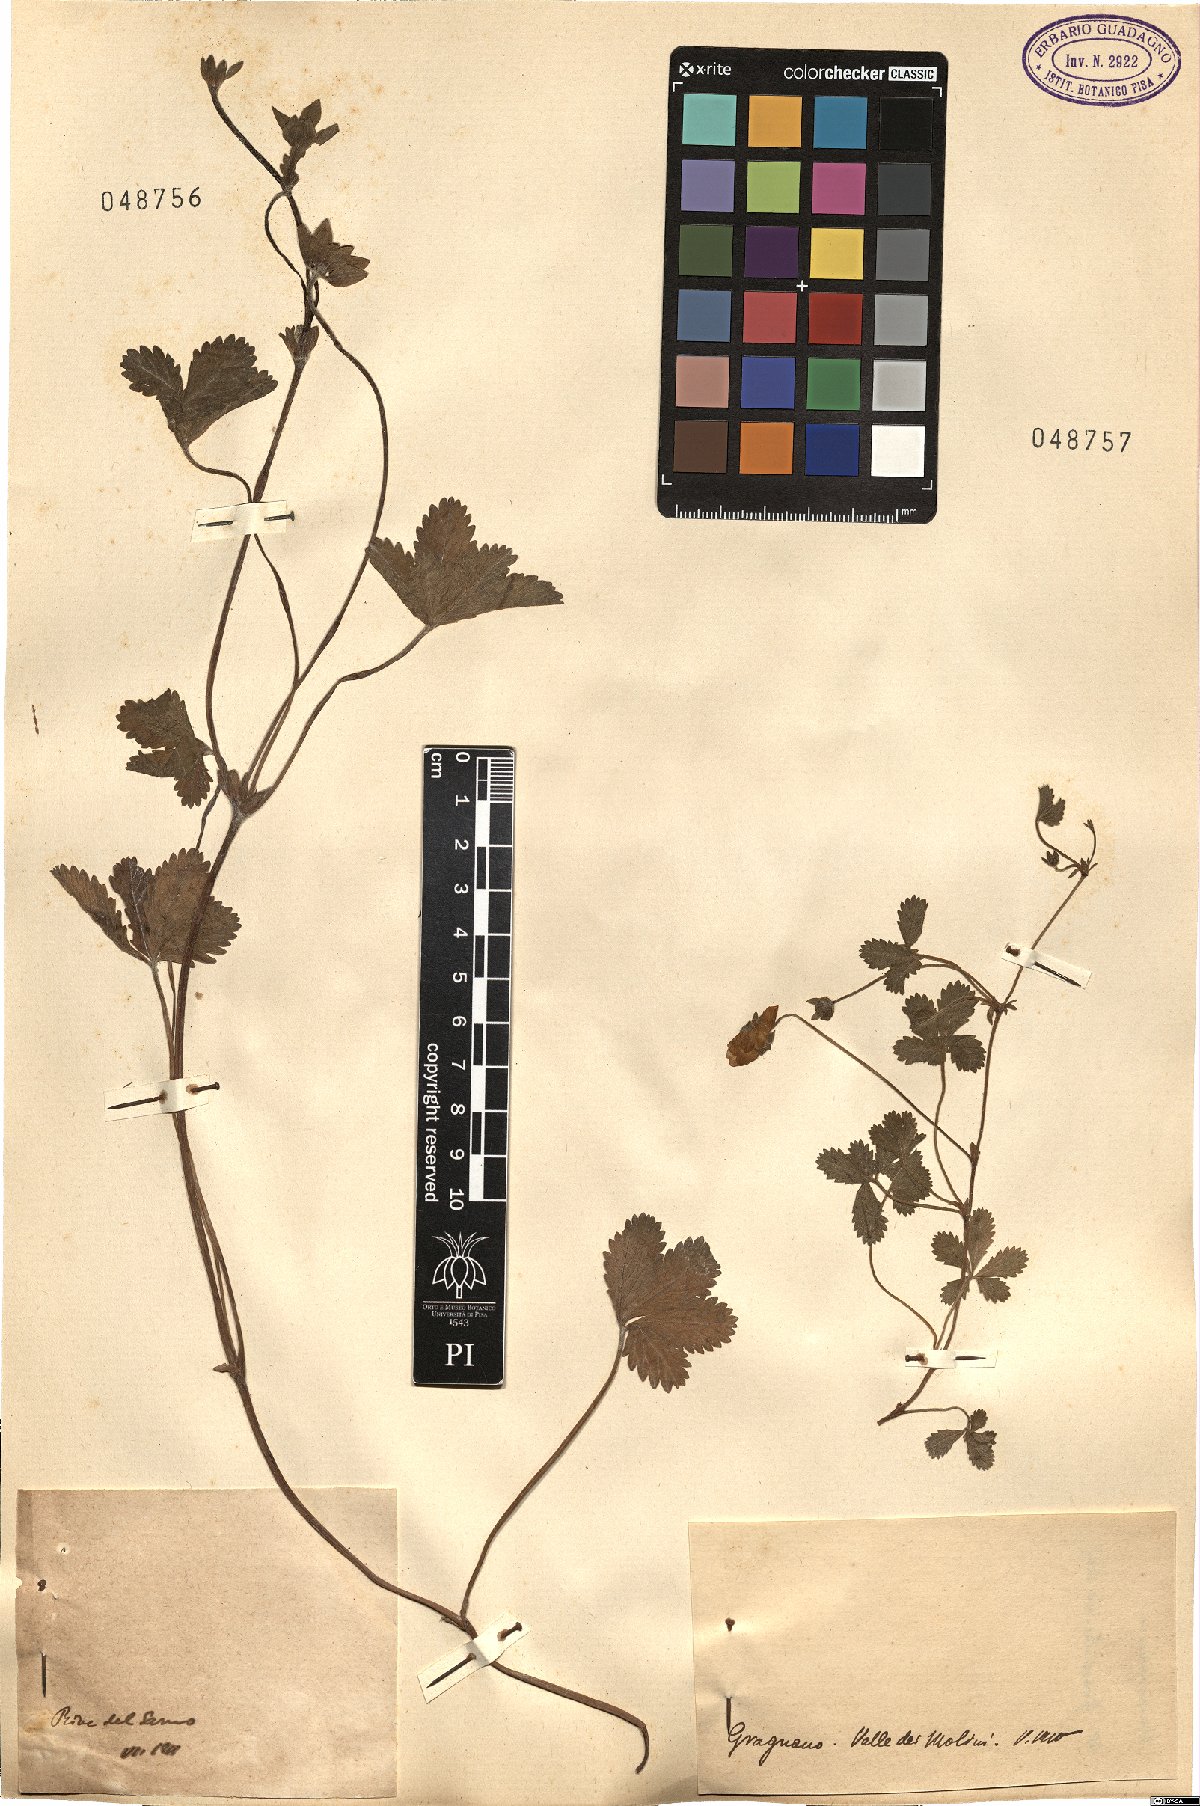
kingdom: Plantae
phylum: Tracheophyta
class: Magnoliopsida
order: Rosales
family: Rosaceae
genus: Potentilla
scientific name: Potentilla
